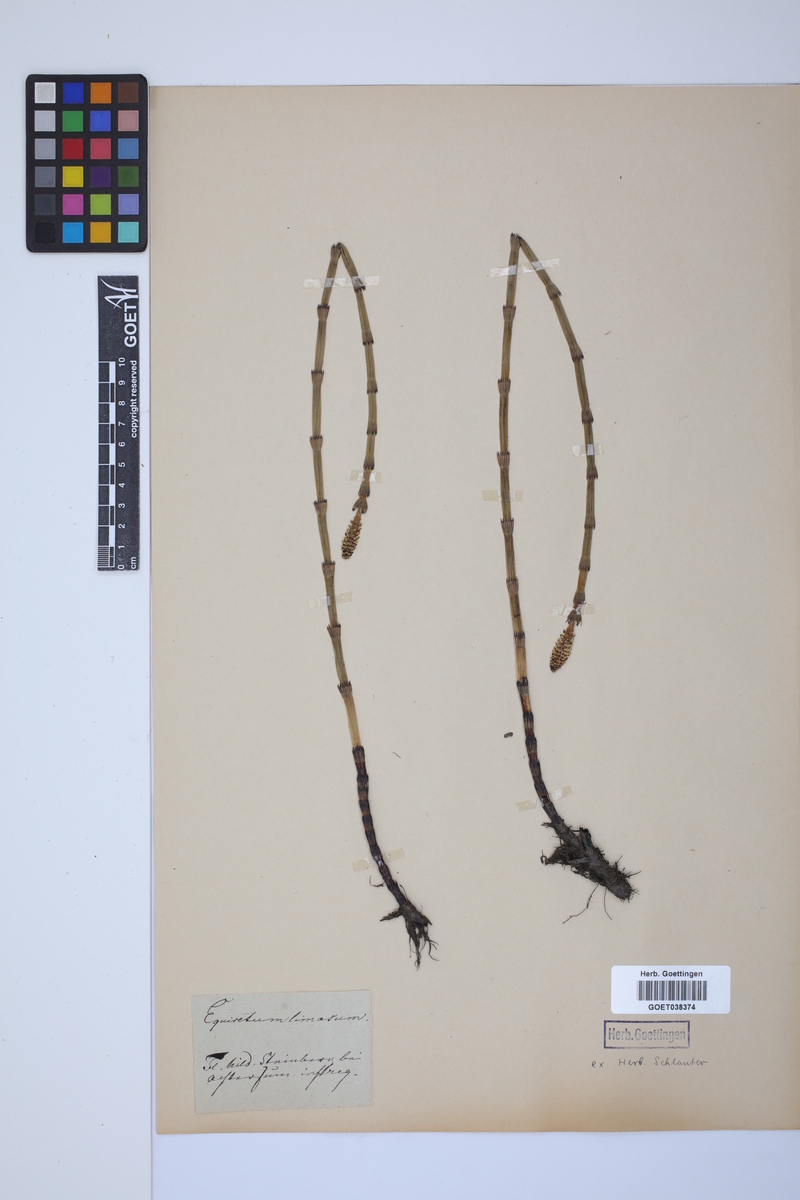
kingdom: Plantae
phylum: Tracheophyta
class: Polypodiopsida
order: Equisetales
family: Equisetaceae
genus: Equisetum
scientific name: Equisetum fluviatile
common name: Water horsetail
